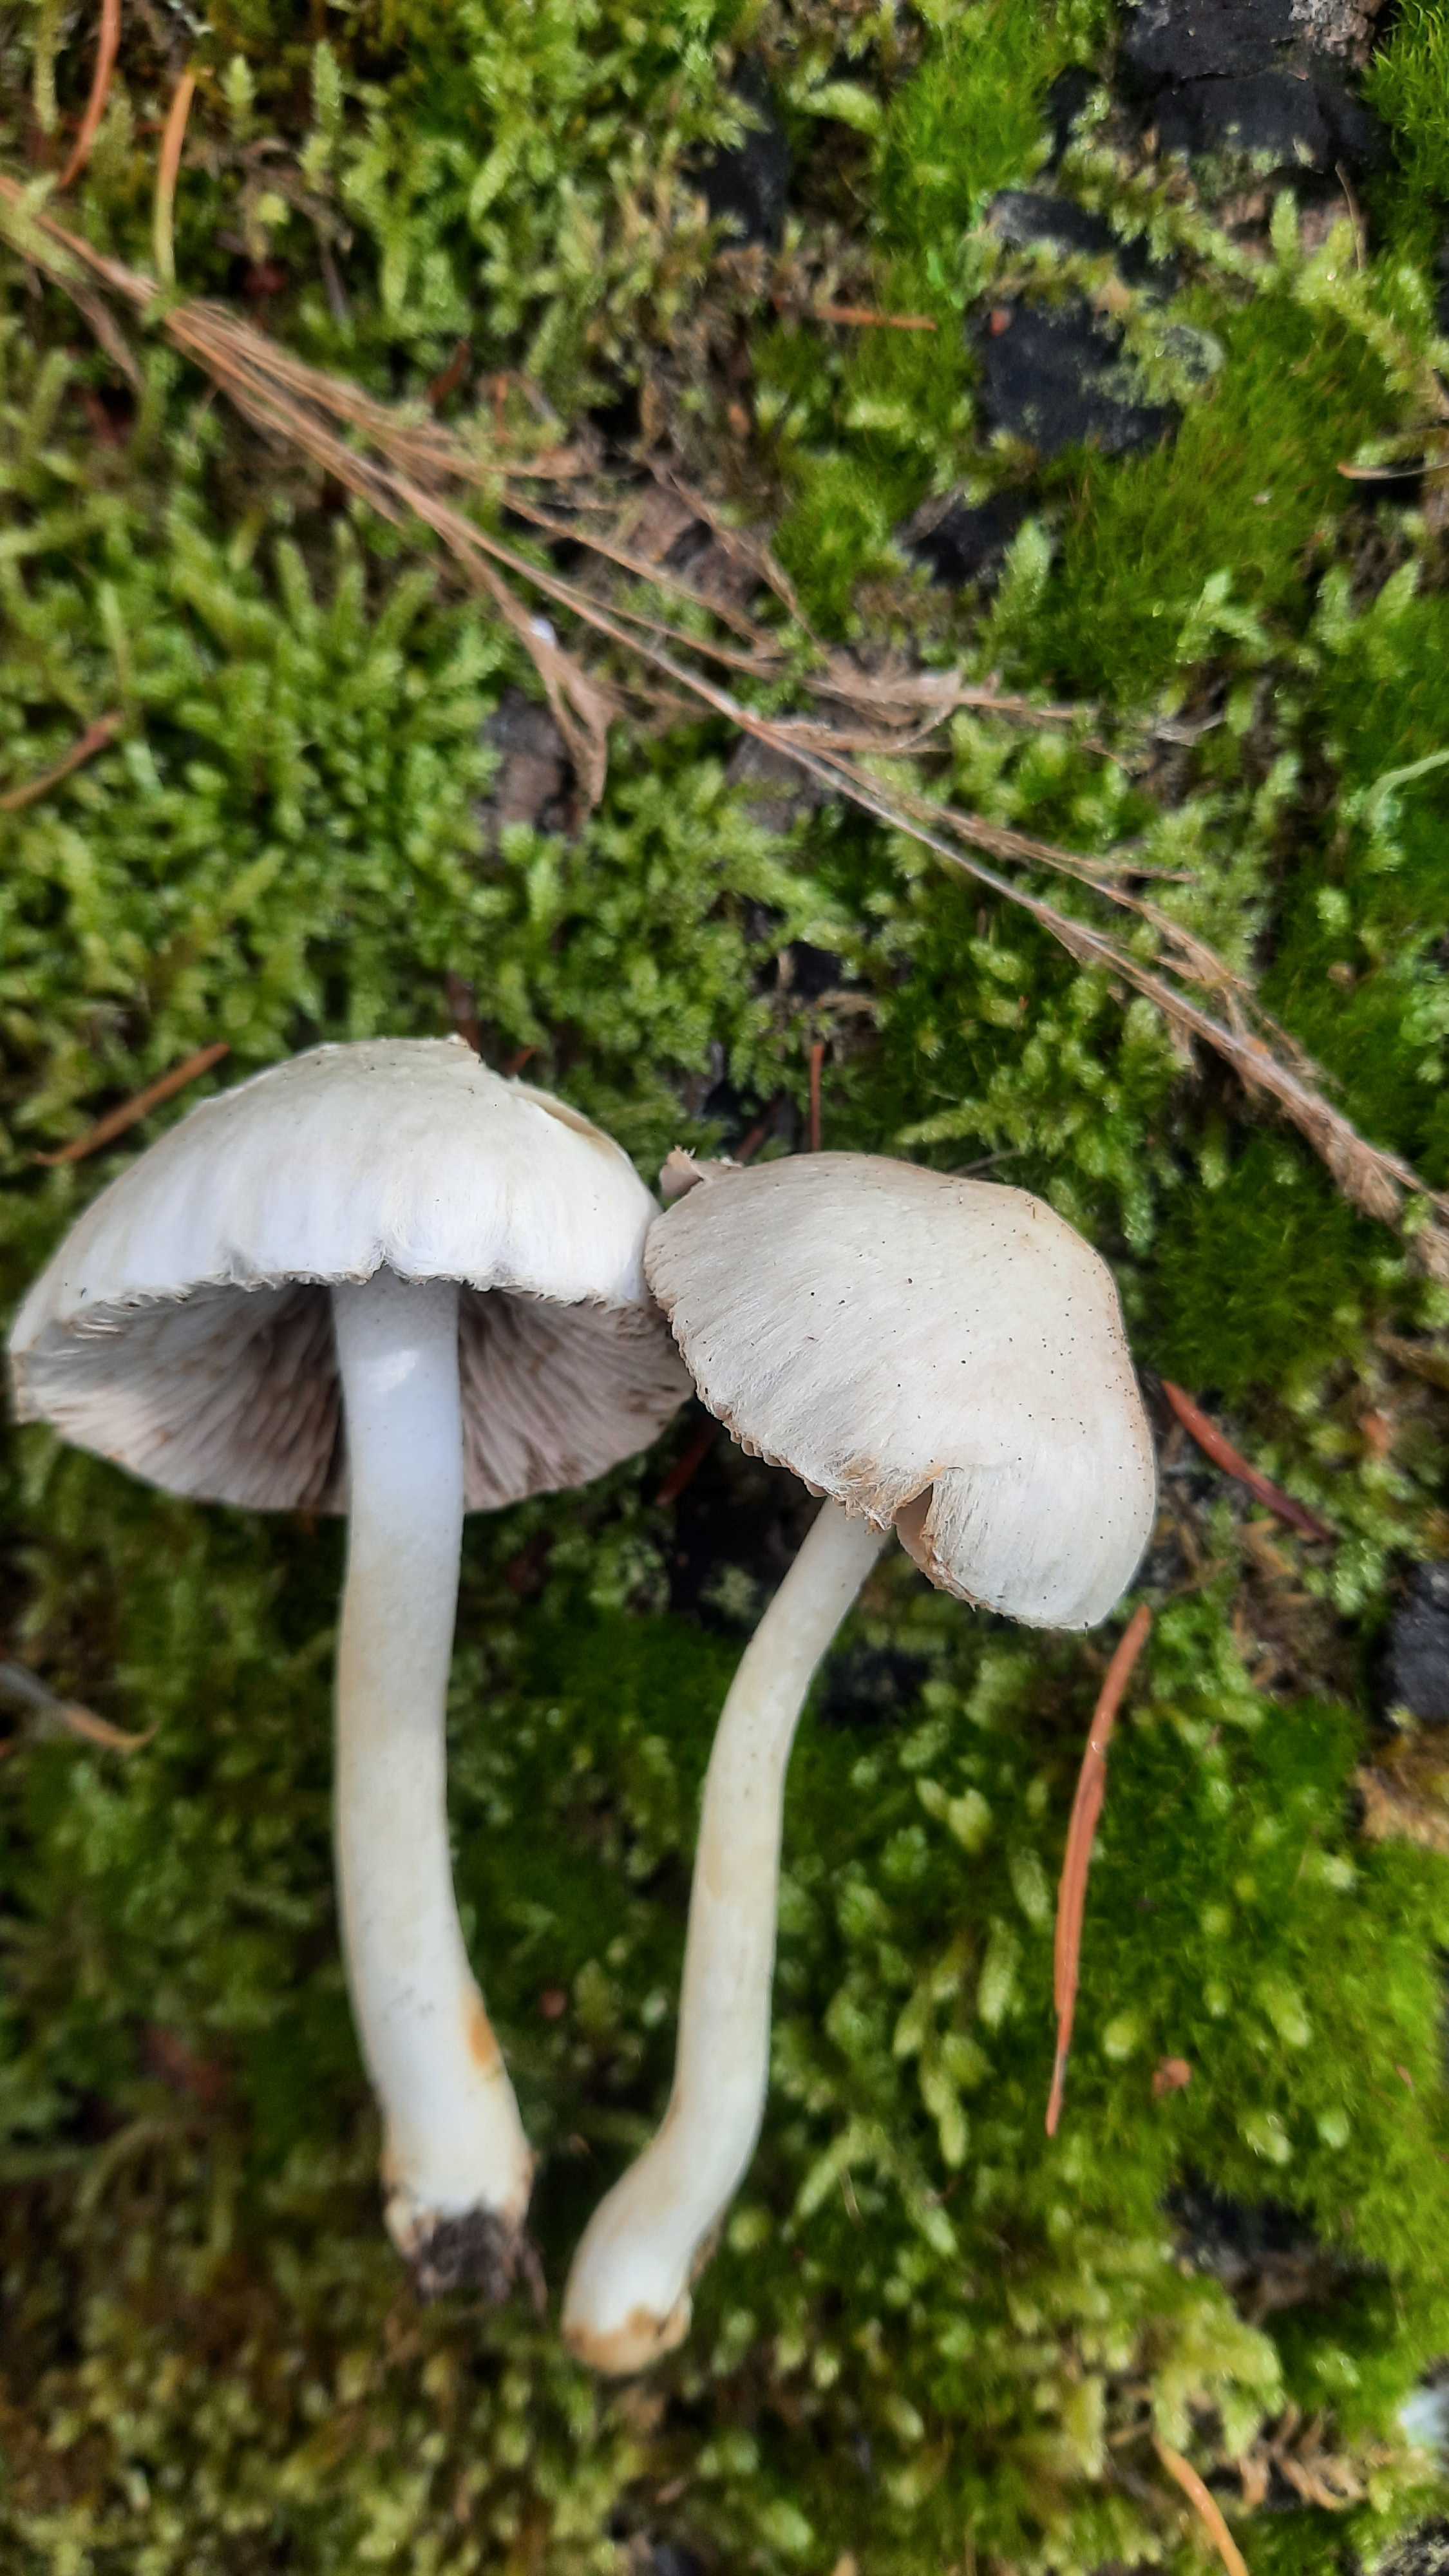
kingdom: Fungi
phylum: Basidiomycota
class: Agaricomycetes
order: Agaricales
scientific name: Agaricales
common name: champignonordenen
